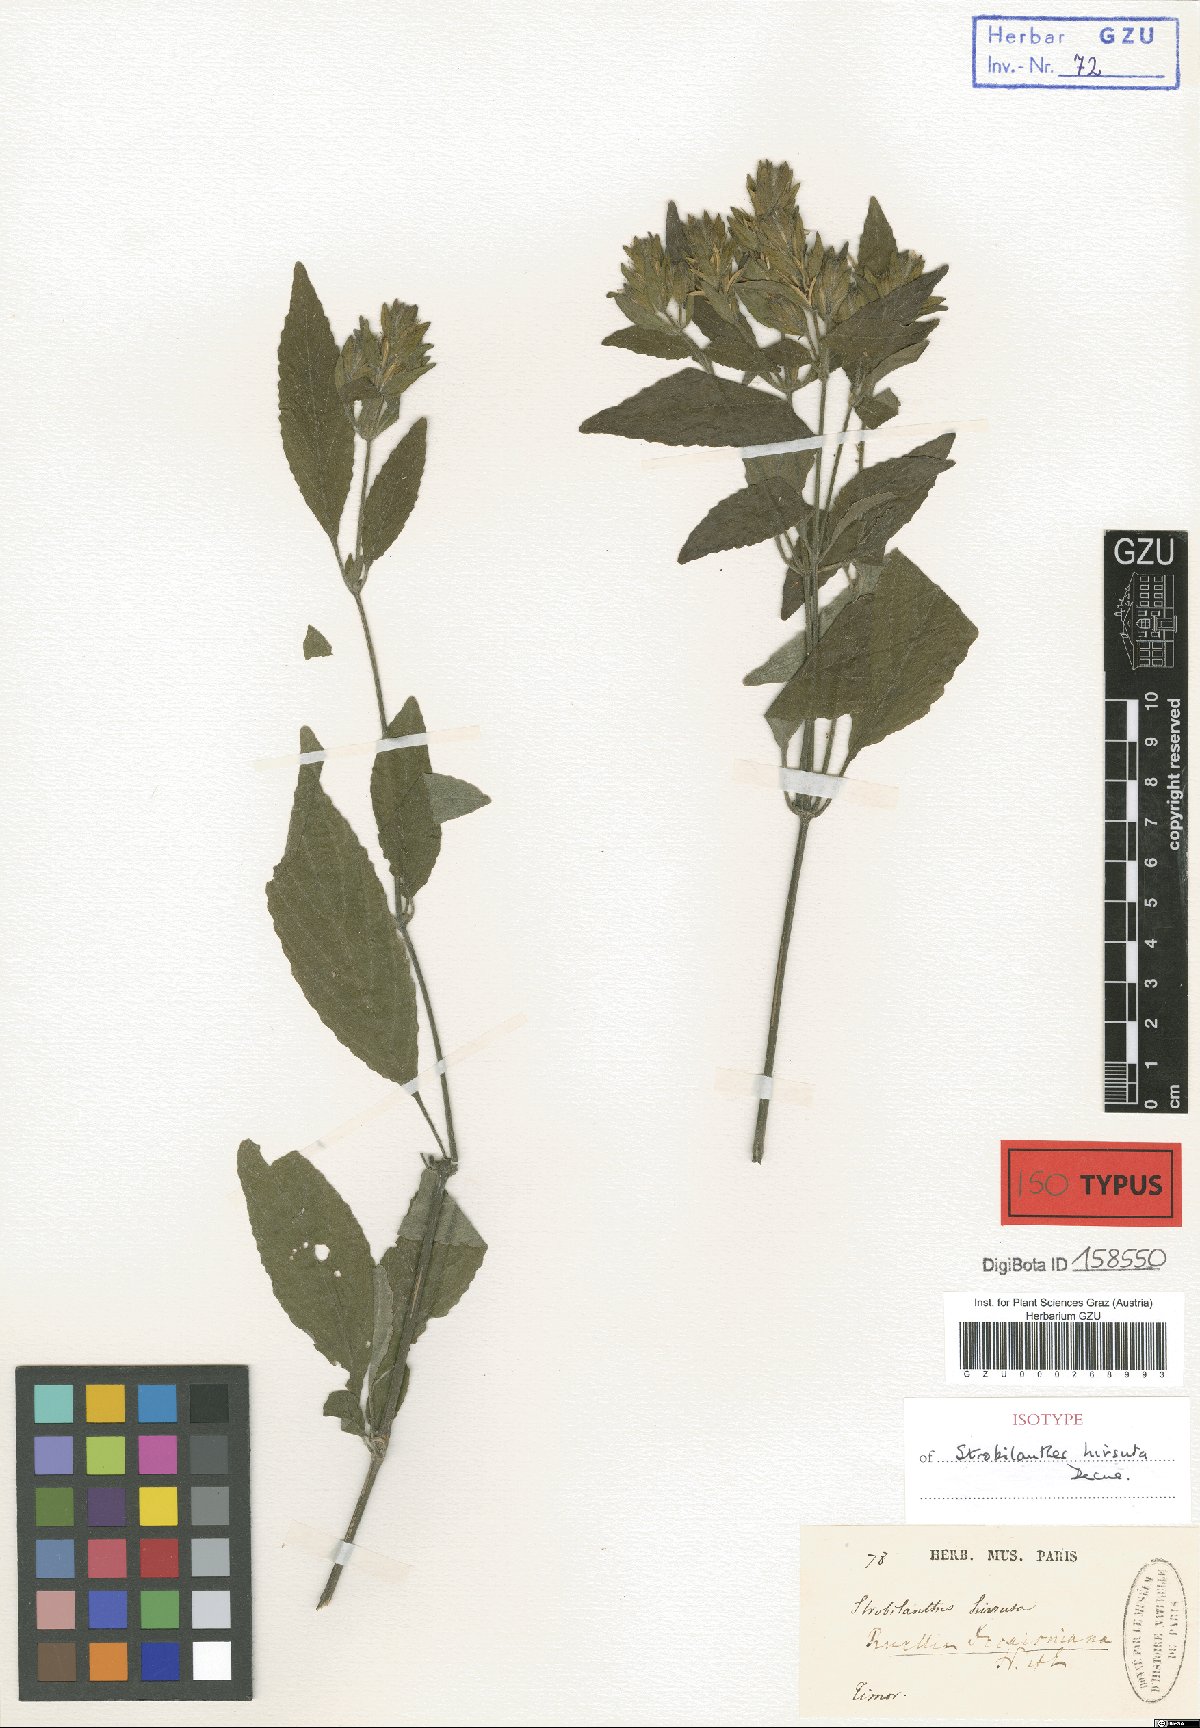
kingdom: Plantae
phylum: Tracheophyta
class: Magnoliopsida
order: Lamiales
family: Acanthaceae
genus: Strobilanthes
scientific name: Strobilanthes hirsuta
